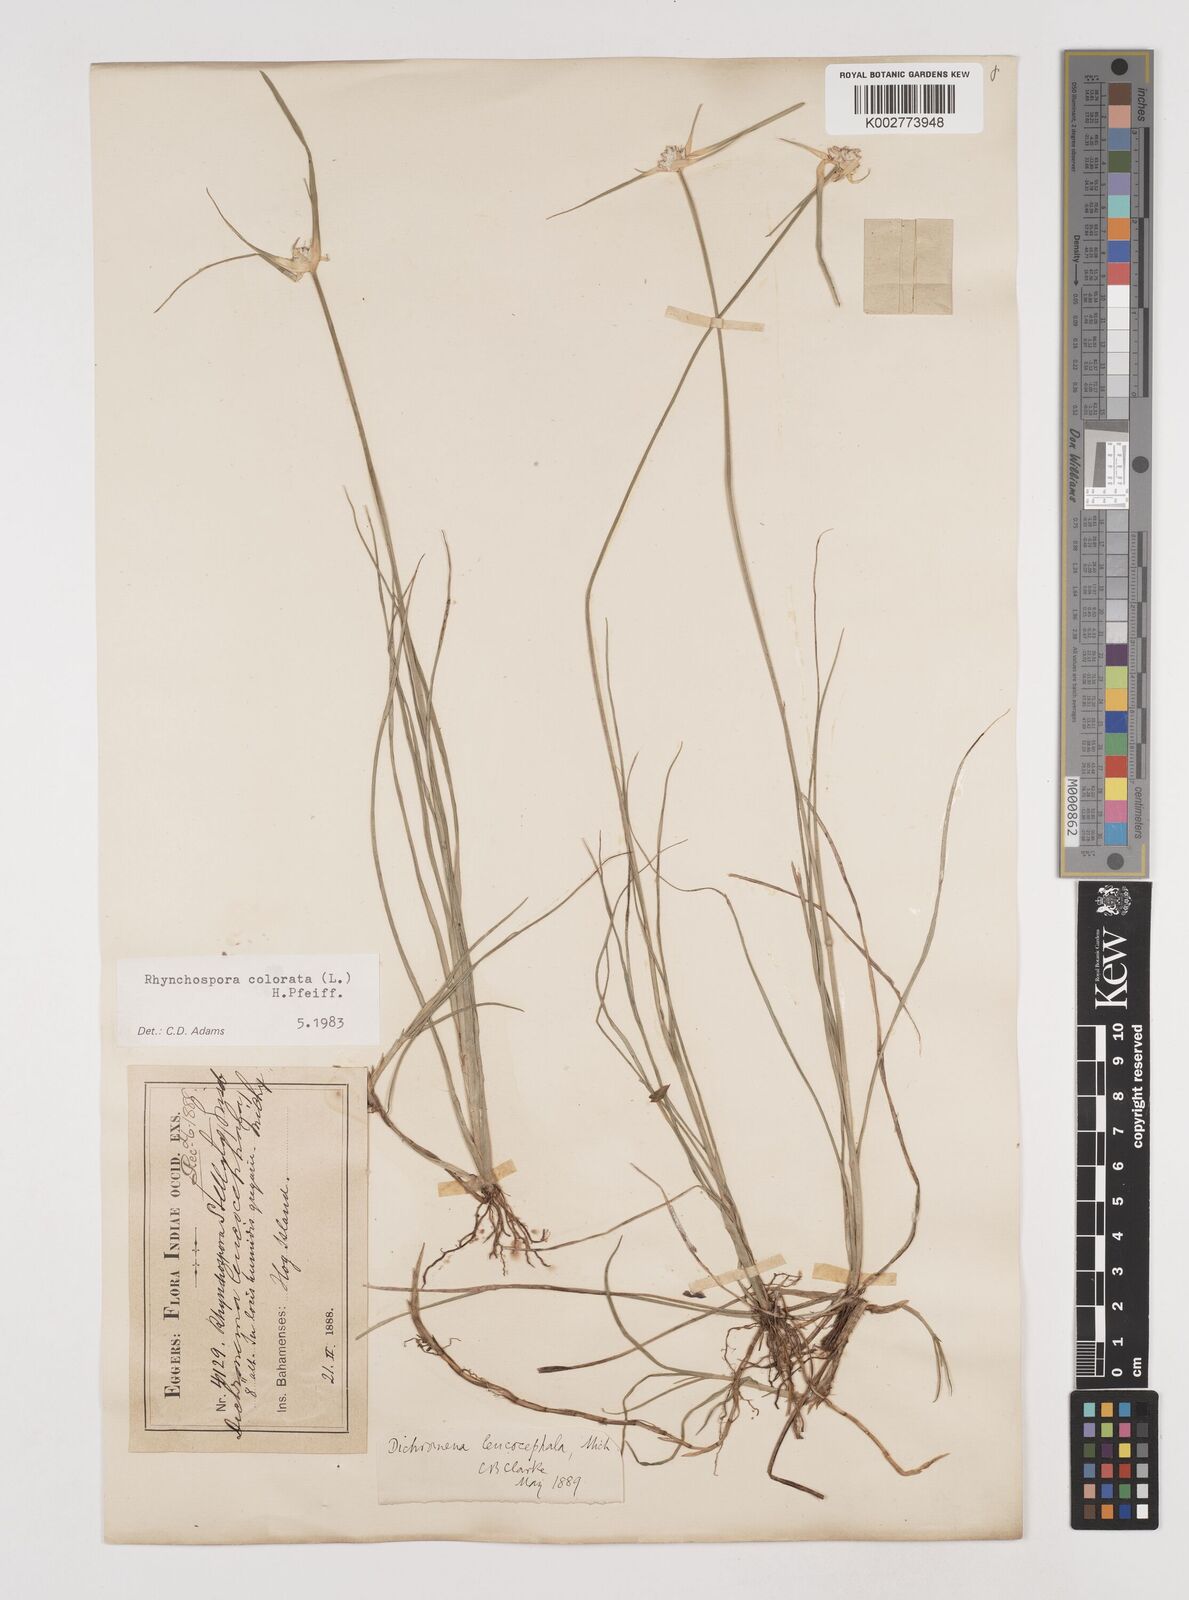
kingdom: Plantae
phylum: Tracheophyta
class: Liliopsida
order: Poales
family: Cyperaceae
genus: Rhynchospora
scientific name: Rhynchospora colorata
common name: Star sedge
